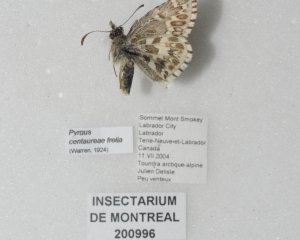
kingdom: Animalia
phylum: Arthropoda
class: Insecta
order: Lepidoptera
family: Hesperiidae
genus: Pyrgus
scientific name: Pyrgus centaureae
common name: Grizzled Skipper
